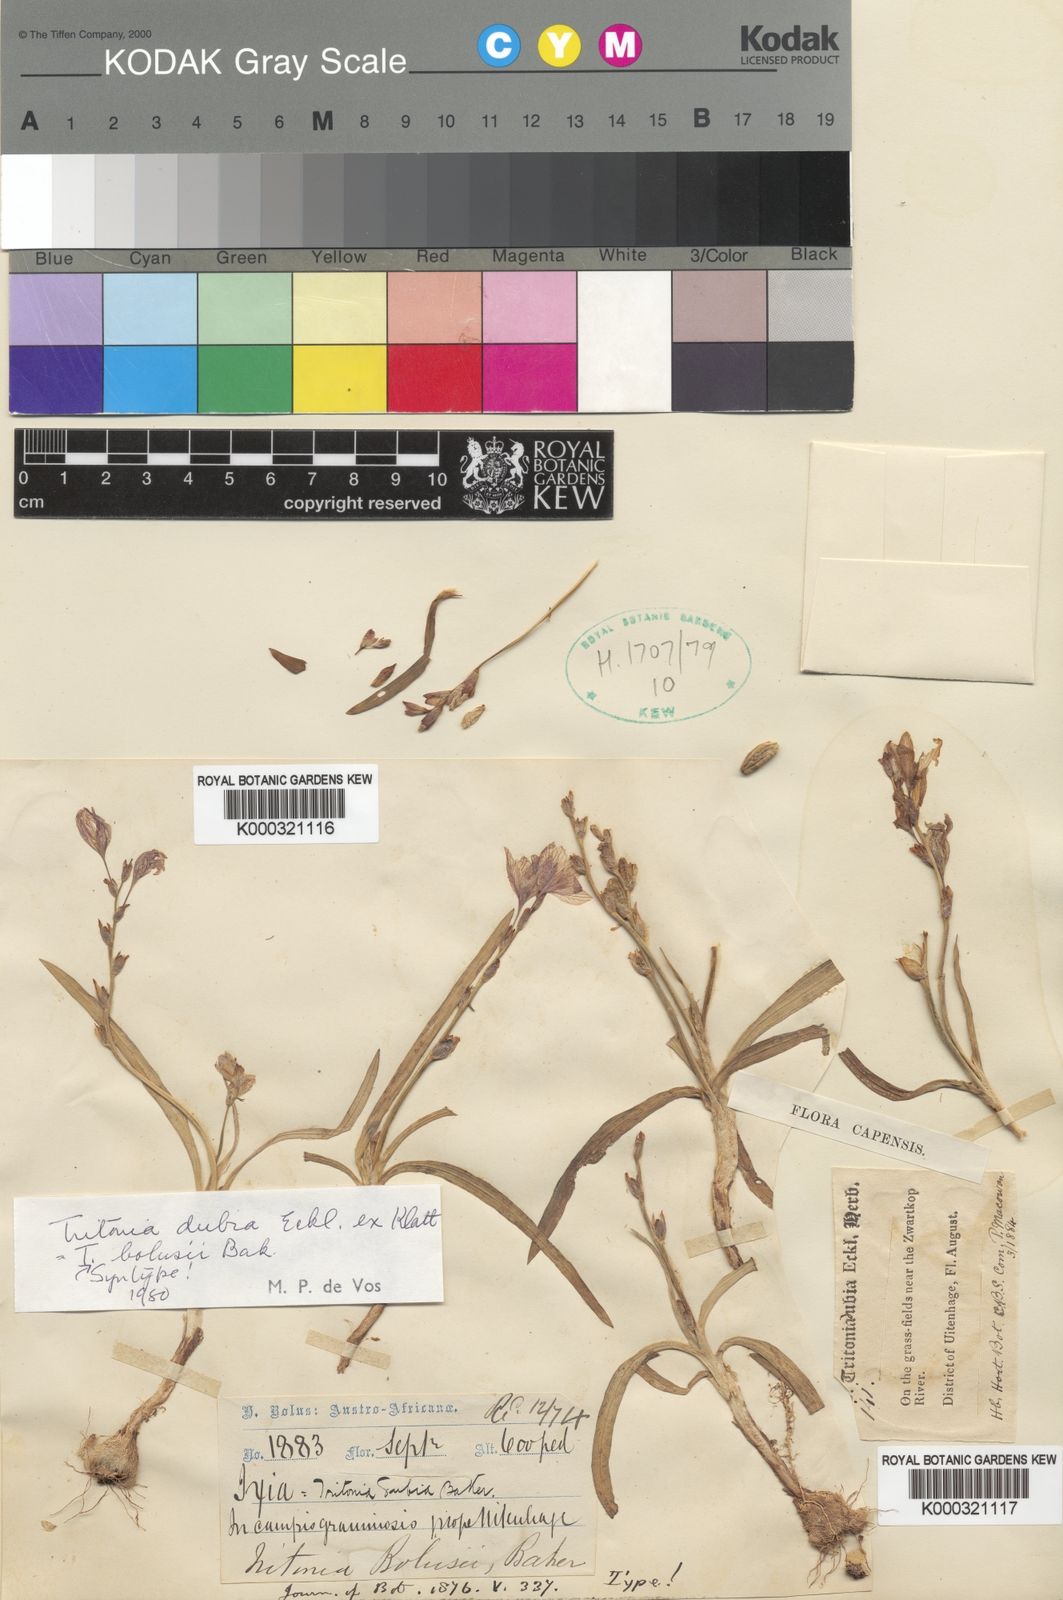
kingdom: Plantae
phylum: Tracheophyta
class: Liliopsida
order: Asparagales
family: Iridaceae
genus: Tritonia
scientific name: Tritonia
